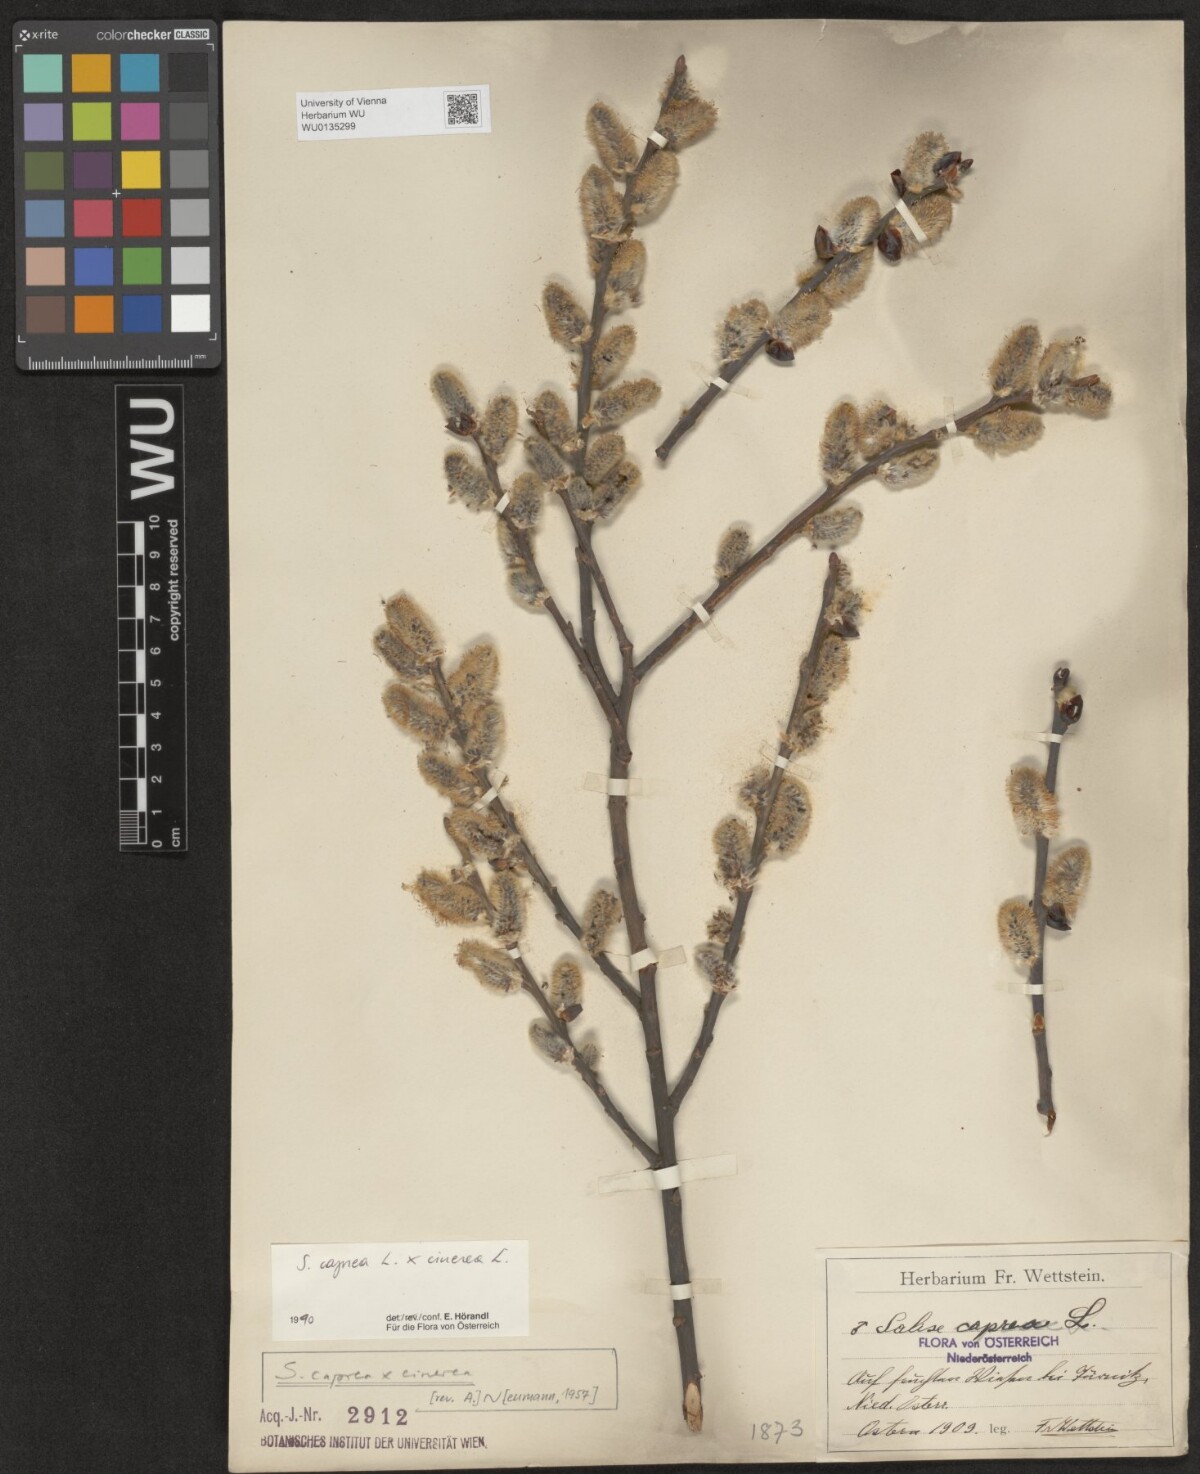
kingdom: Plantae
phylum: Tracheophyta
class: Magnoliopsida
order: Malpighiales
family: Salicaceae
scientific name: Salicaceae
